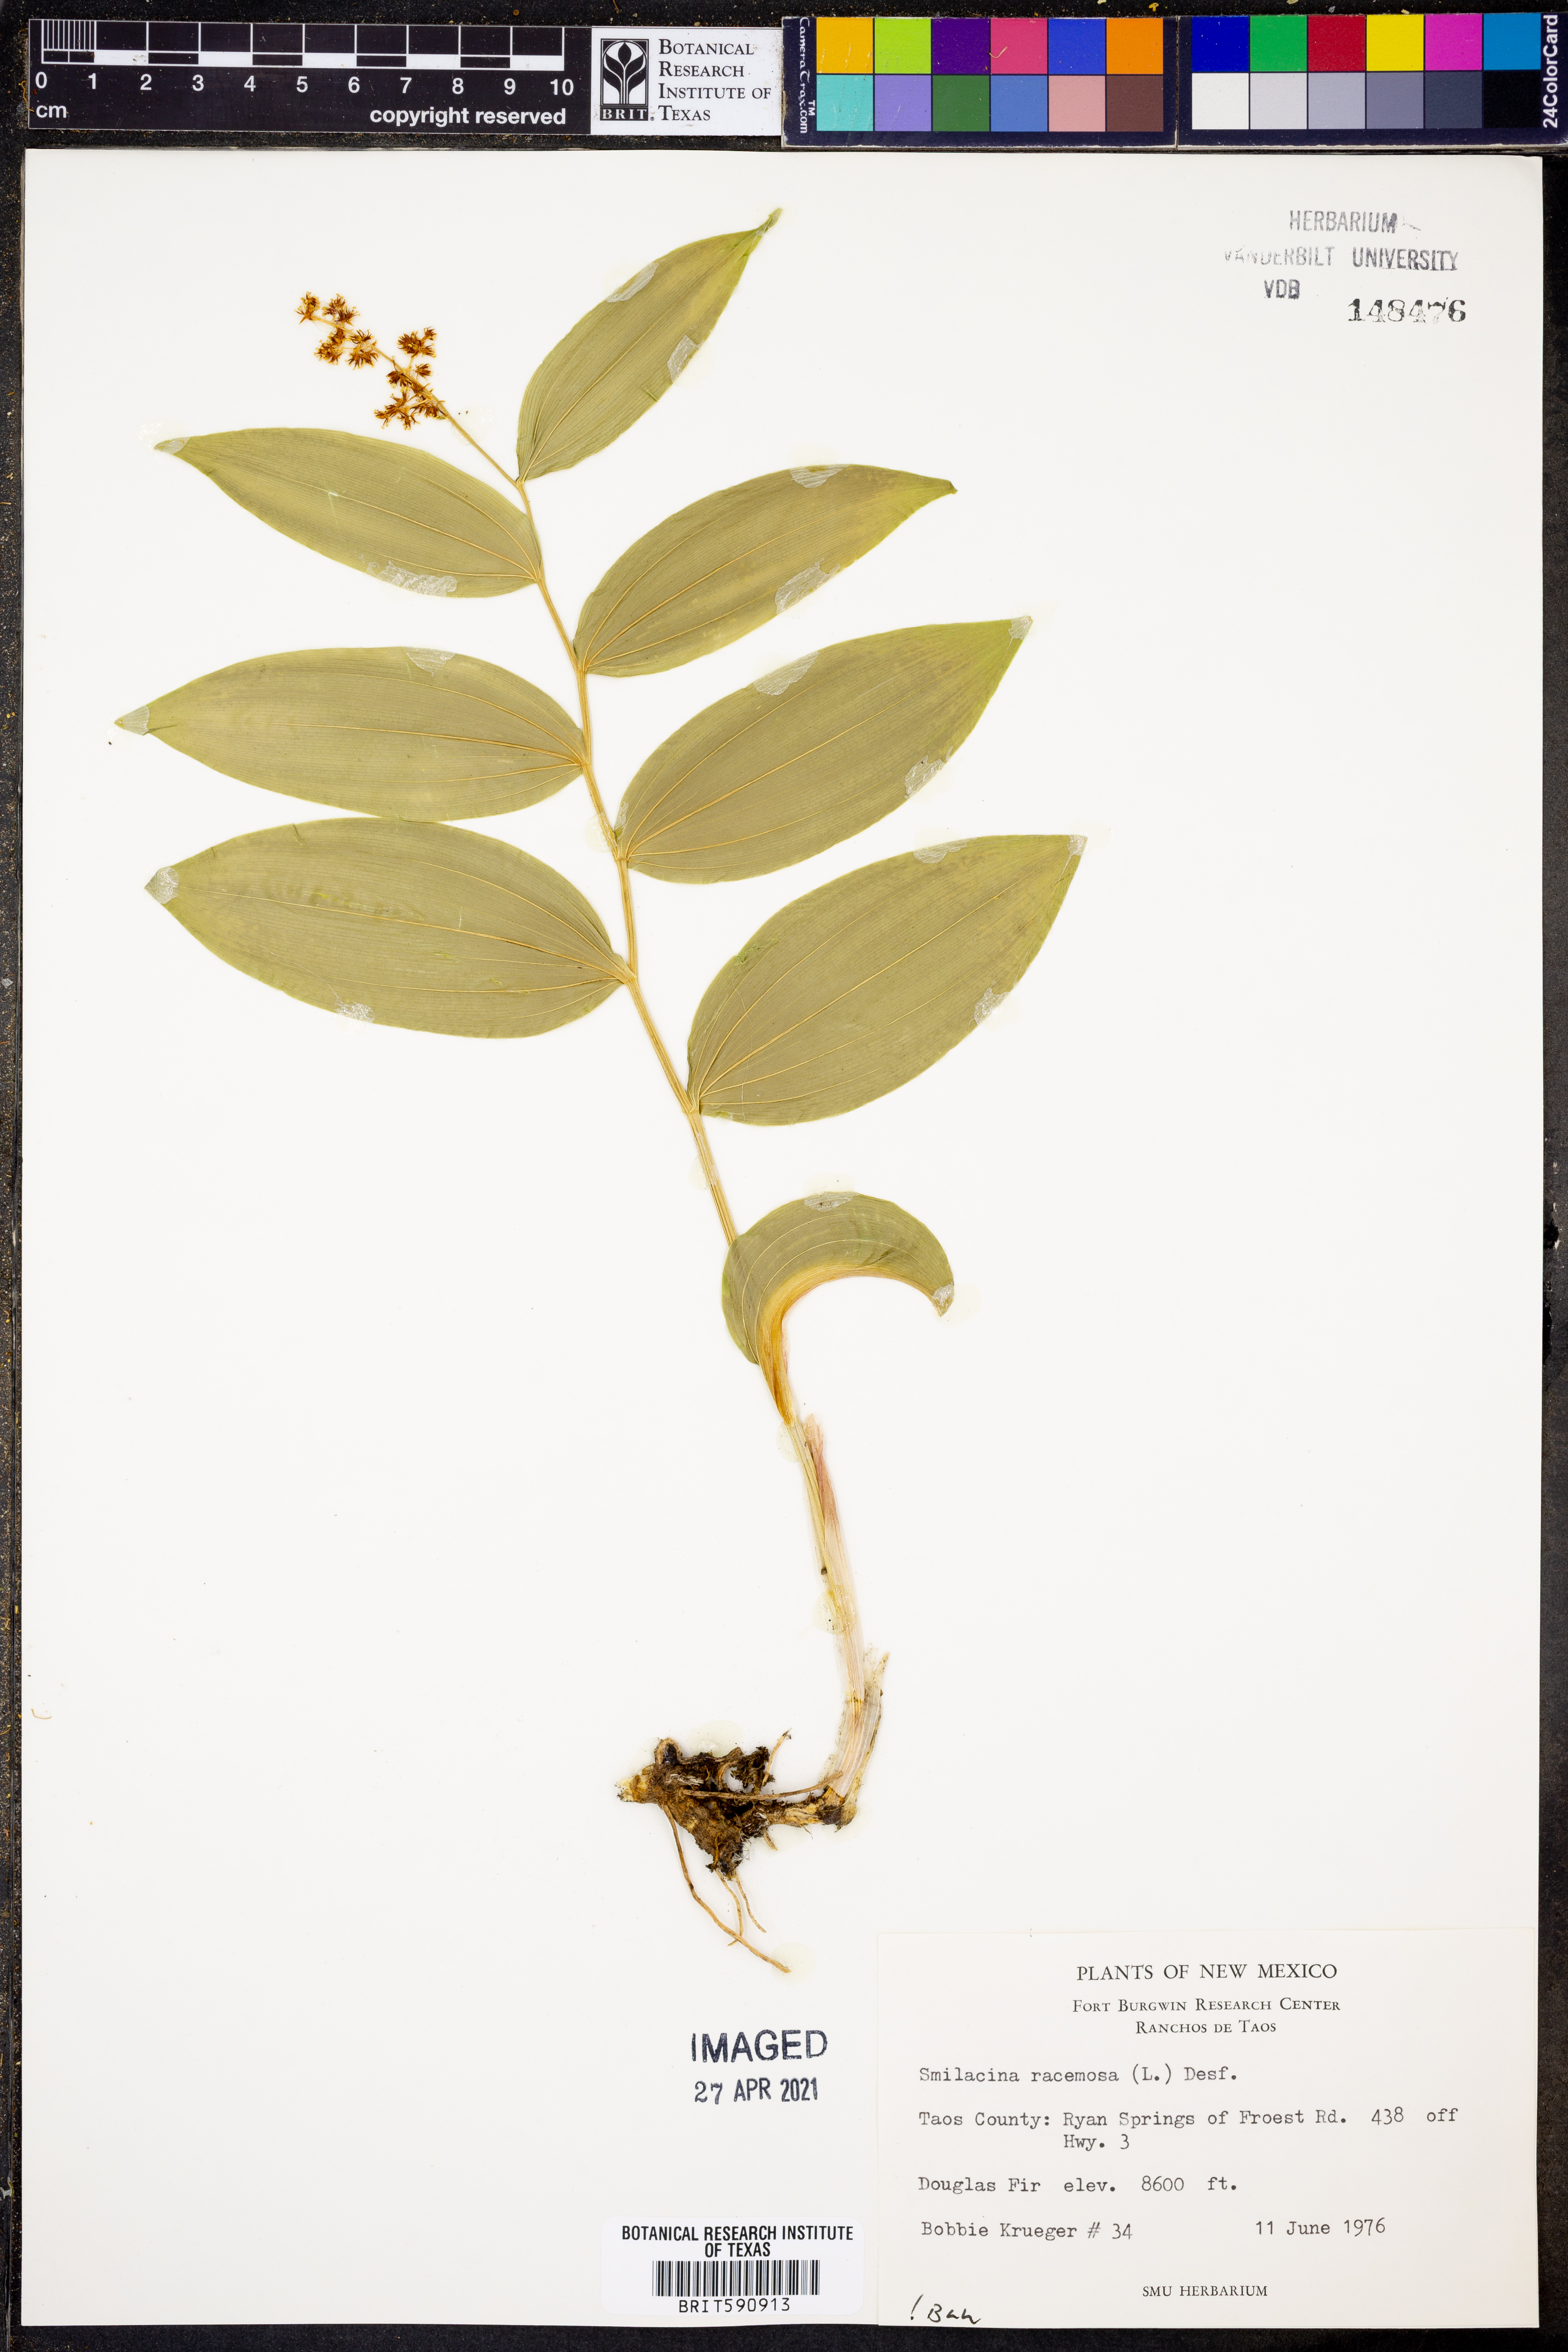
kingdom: Plantae
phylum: Tracheophyta
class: Liliopsida
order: Asparagales
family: Asparagaceae
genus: Maianthemum
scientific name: Maianthemum racemosum
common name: False spikenard
